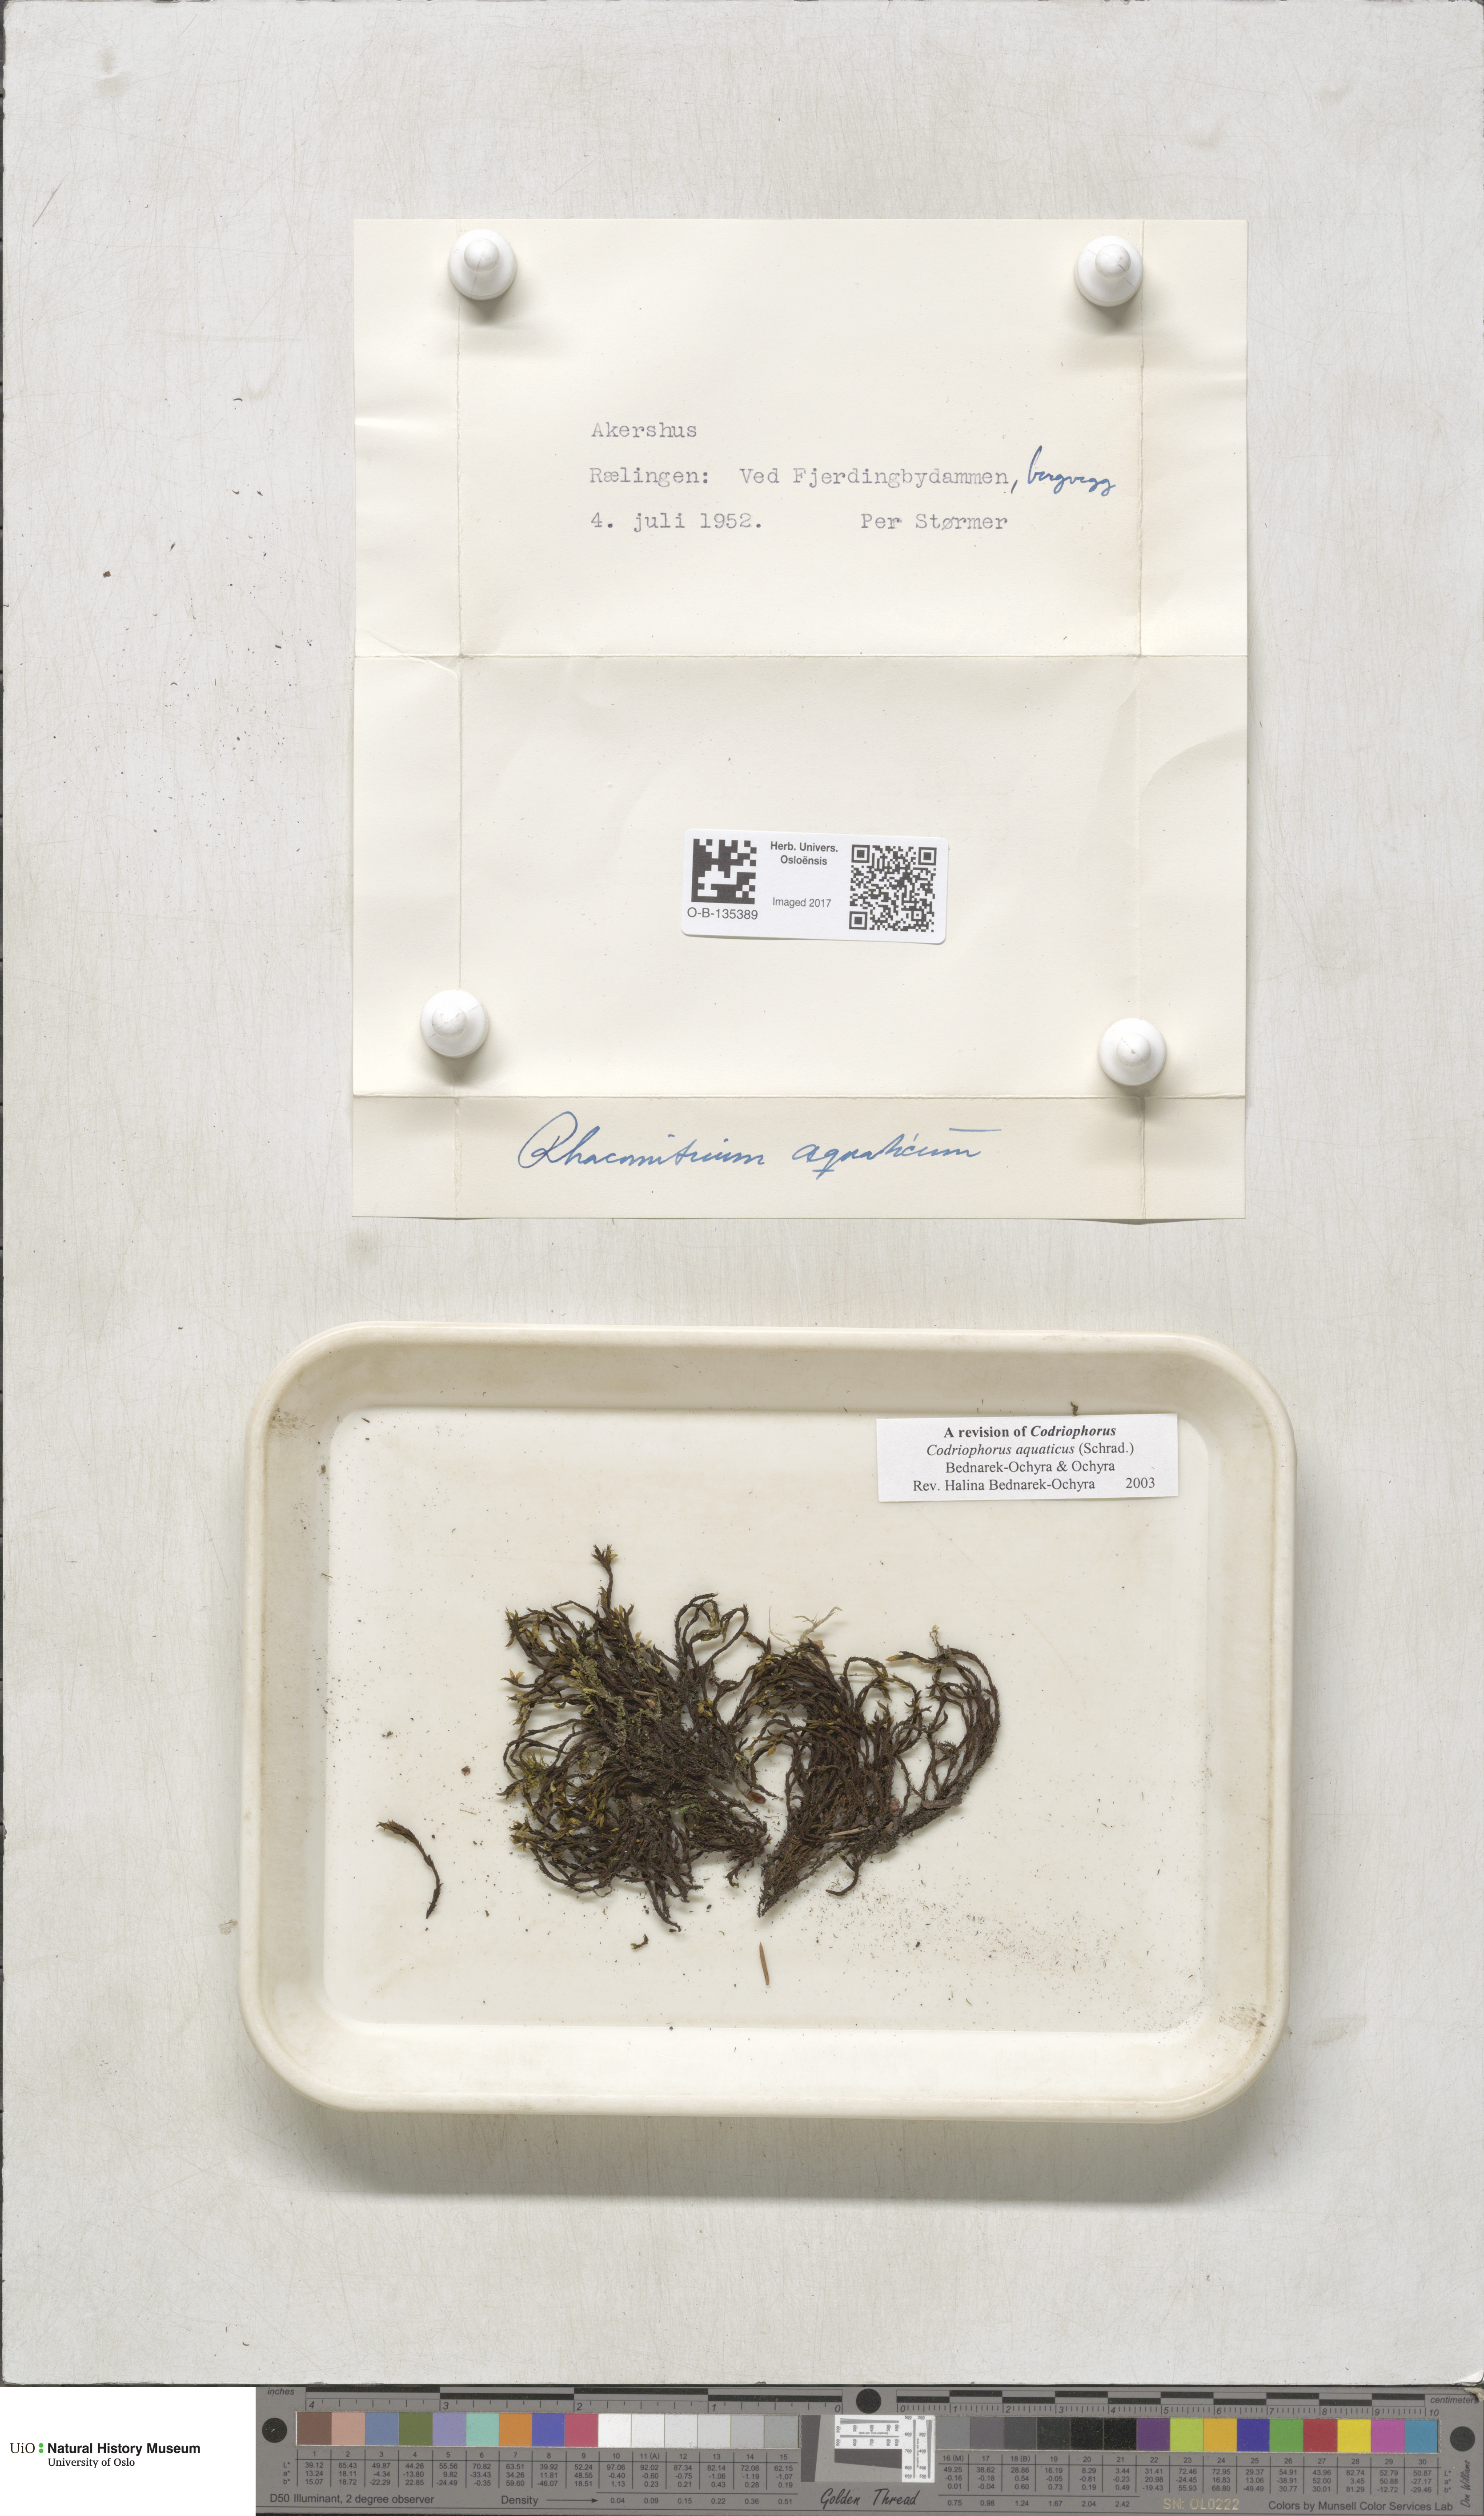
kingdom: Plantae
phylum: Bryophyta
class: Bryopsida
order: Grimmiales
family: Grimmiaceae
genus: Codriophorus
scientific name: Codriophorus aquaticus
